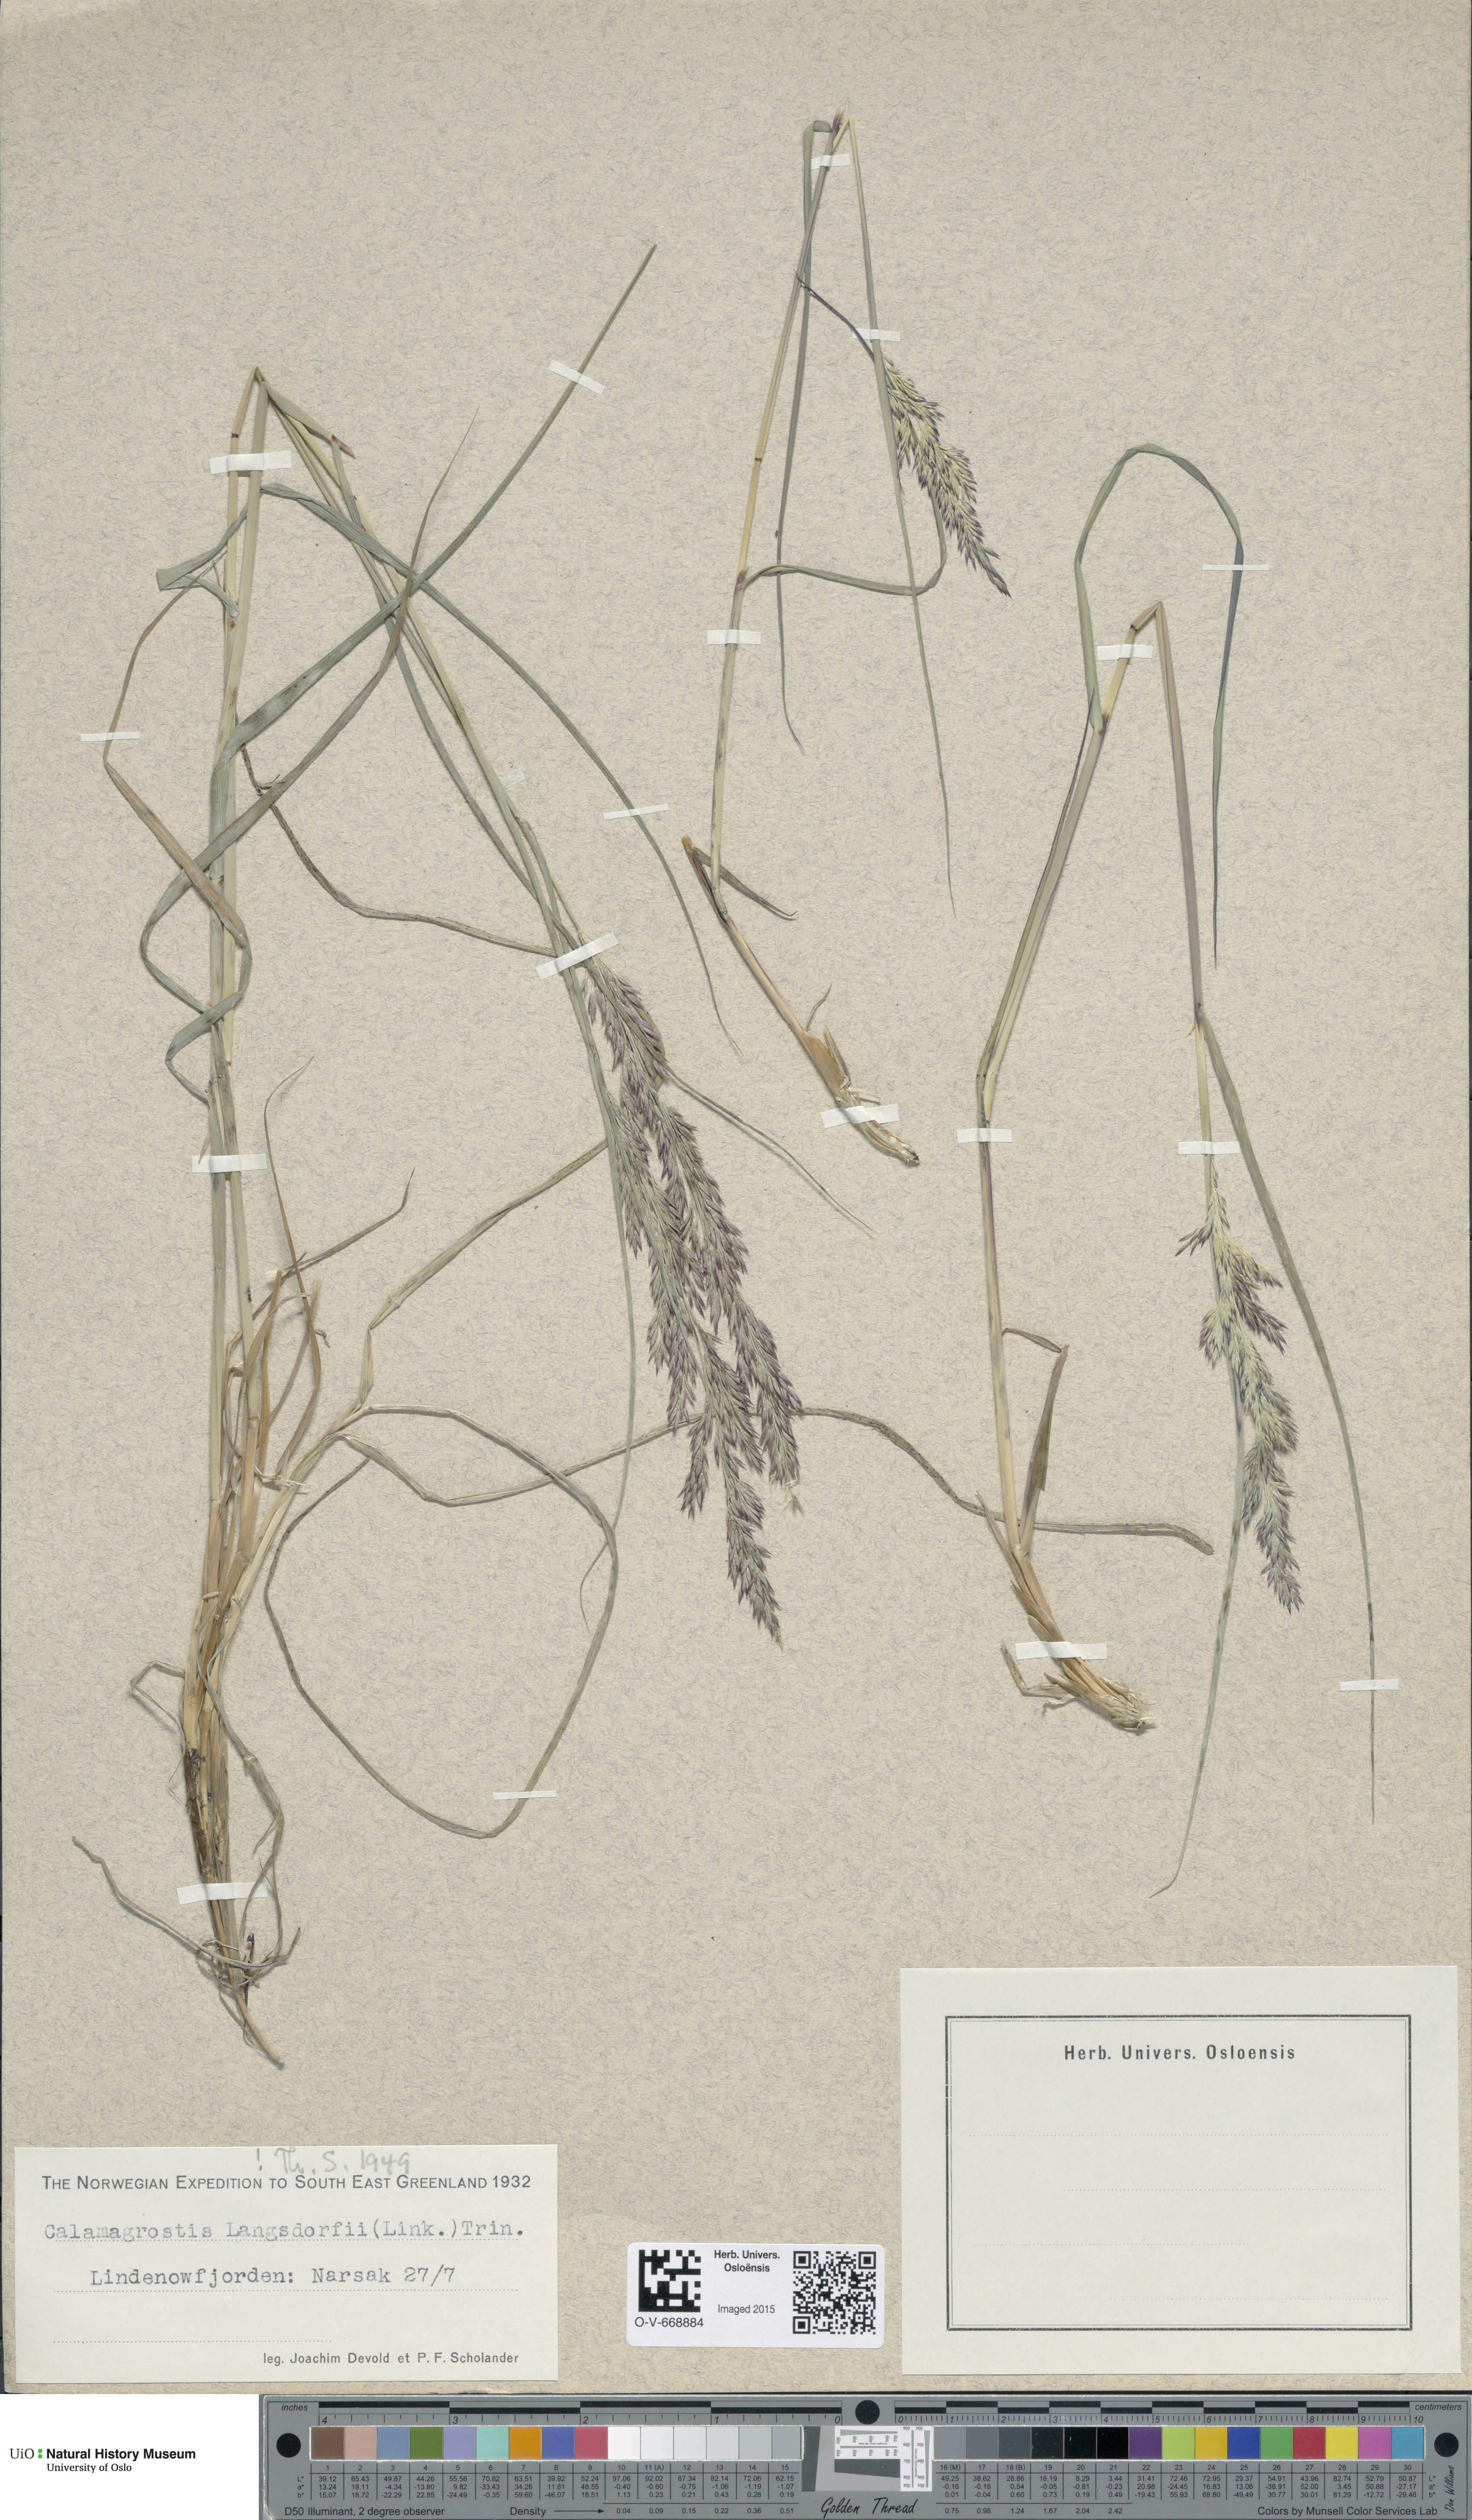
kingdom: Plantae
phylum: Tracheophyta
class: Liliopsida
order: Poales
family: Poaceae
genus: Calamagrostis
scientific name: Calamagrostis purpurea
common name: Scandinavian small-reed
